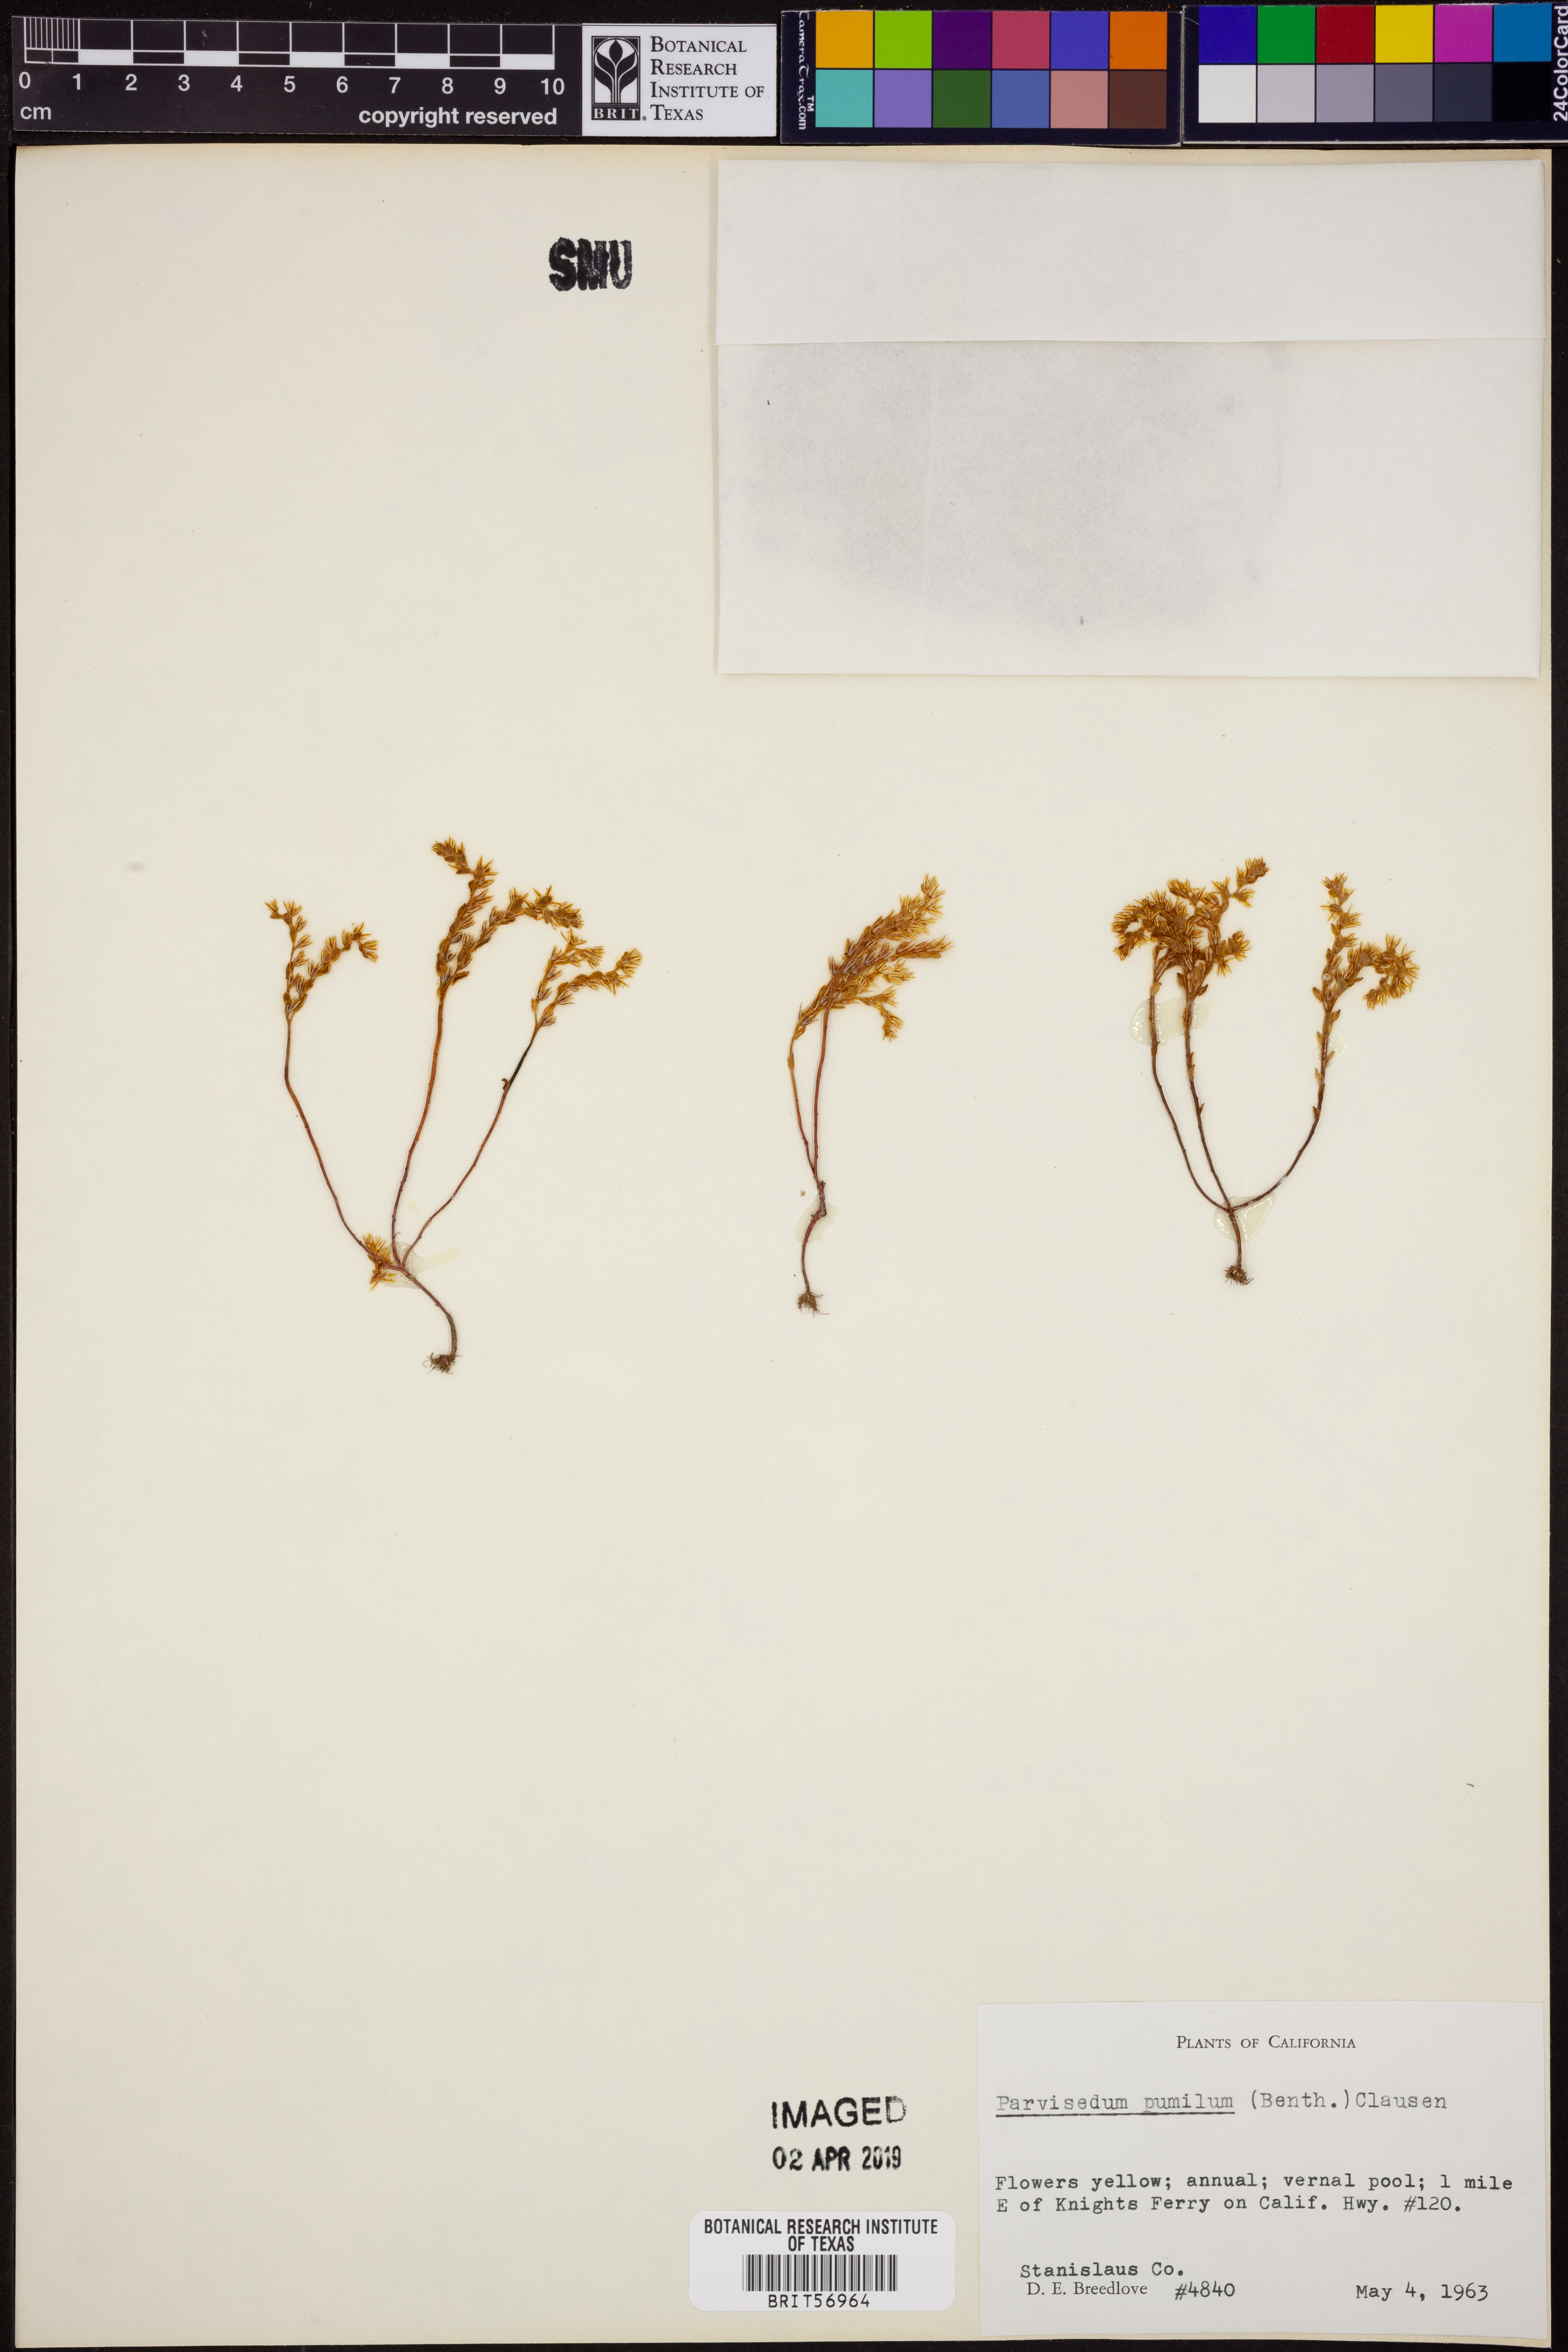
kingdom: Plantae
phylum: Tracheophyta
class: Magnoliopsida
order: Saxifragales
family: Crassulaceae
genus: Sedella
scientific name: Sedella pumila
